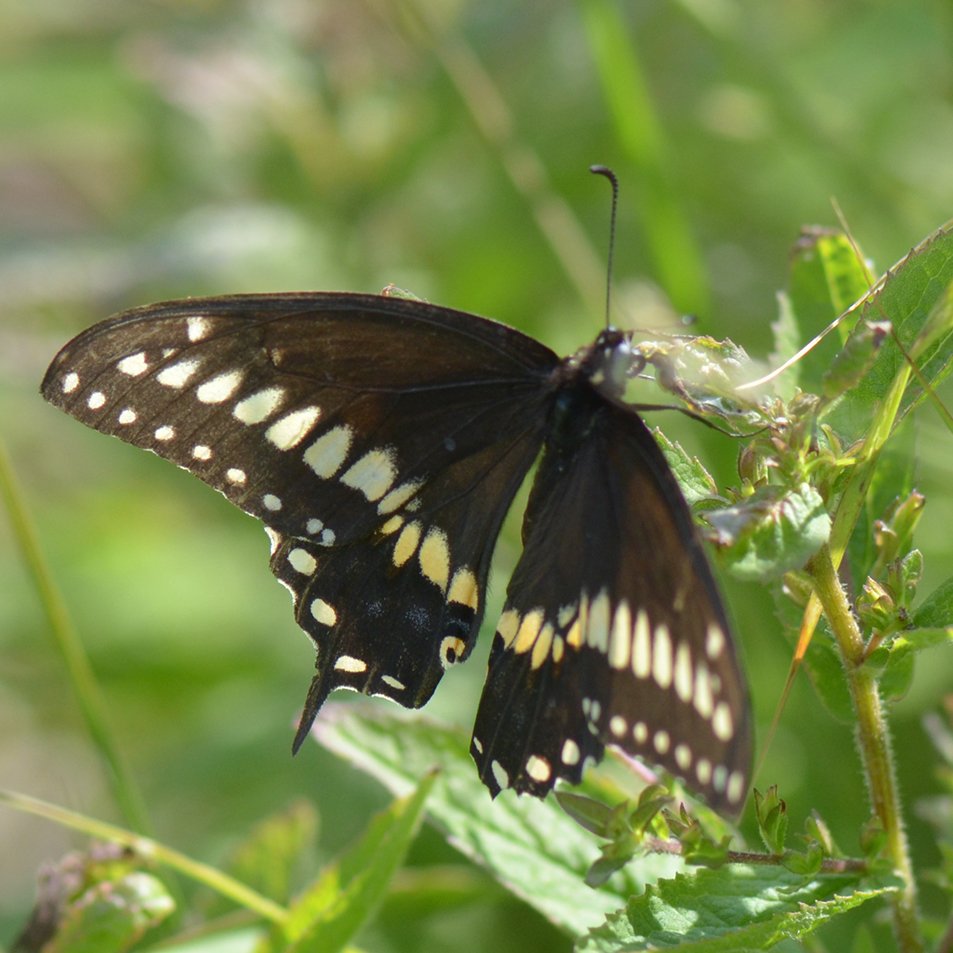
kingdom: Animalia
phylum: Arthropoda
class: Insecta
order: Lepidoptera
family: Papilionidae
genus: Papilio
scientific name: Papilio polyxenes
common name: Black Swallowtail
